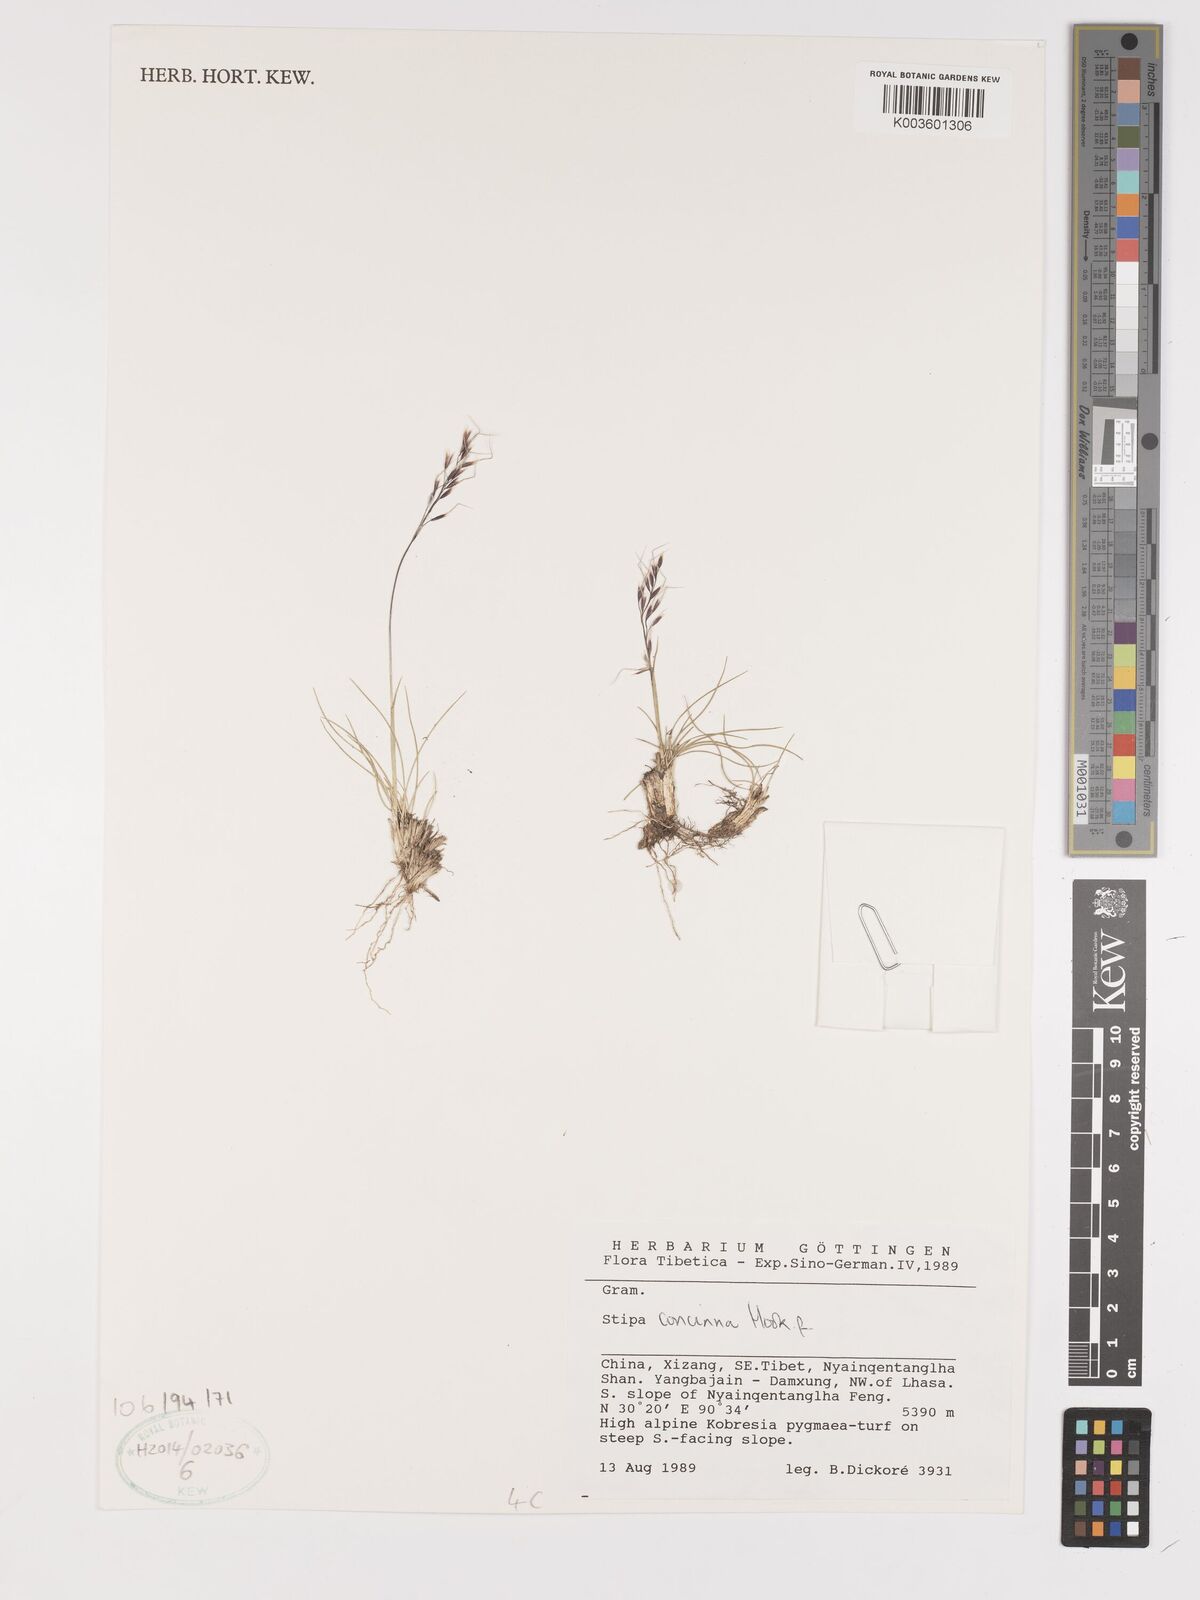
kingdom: Plantae
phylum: Tracheophyta
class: Liliopsida
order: Poales
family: Poaceae
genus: Ptilagrostis
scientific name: Ptilagrostis concinna
